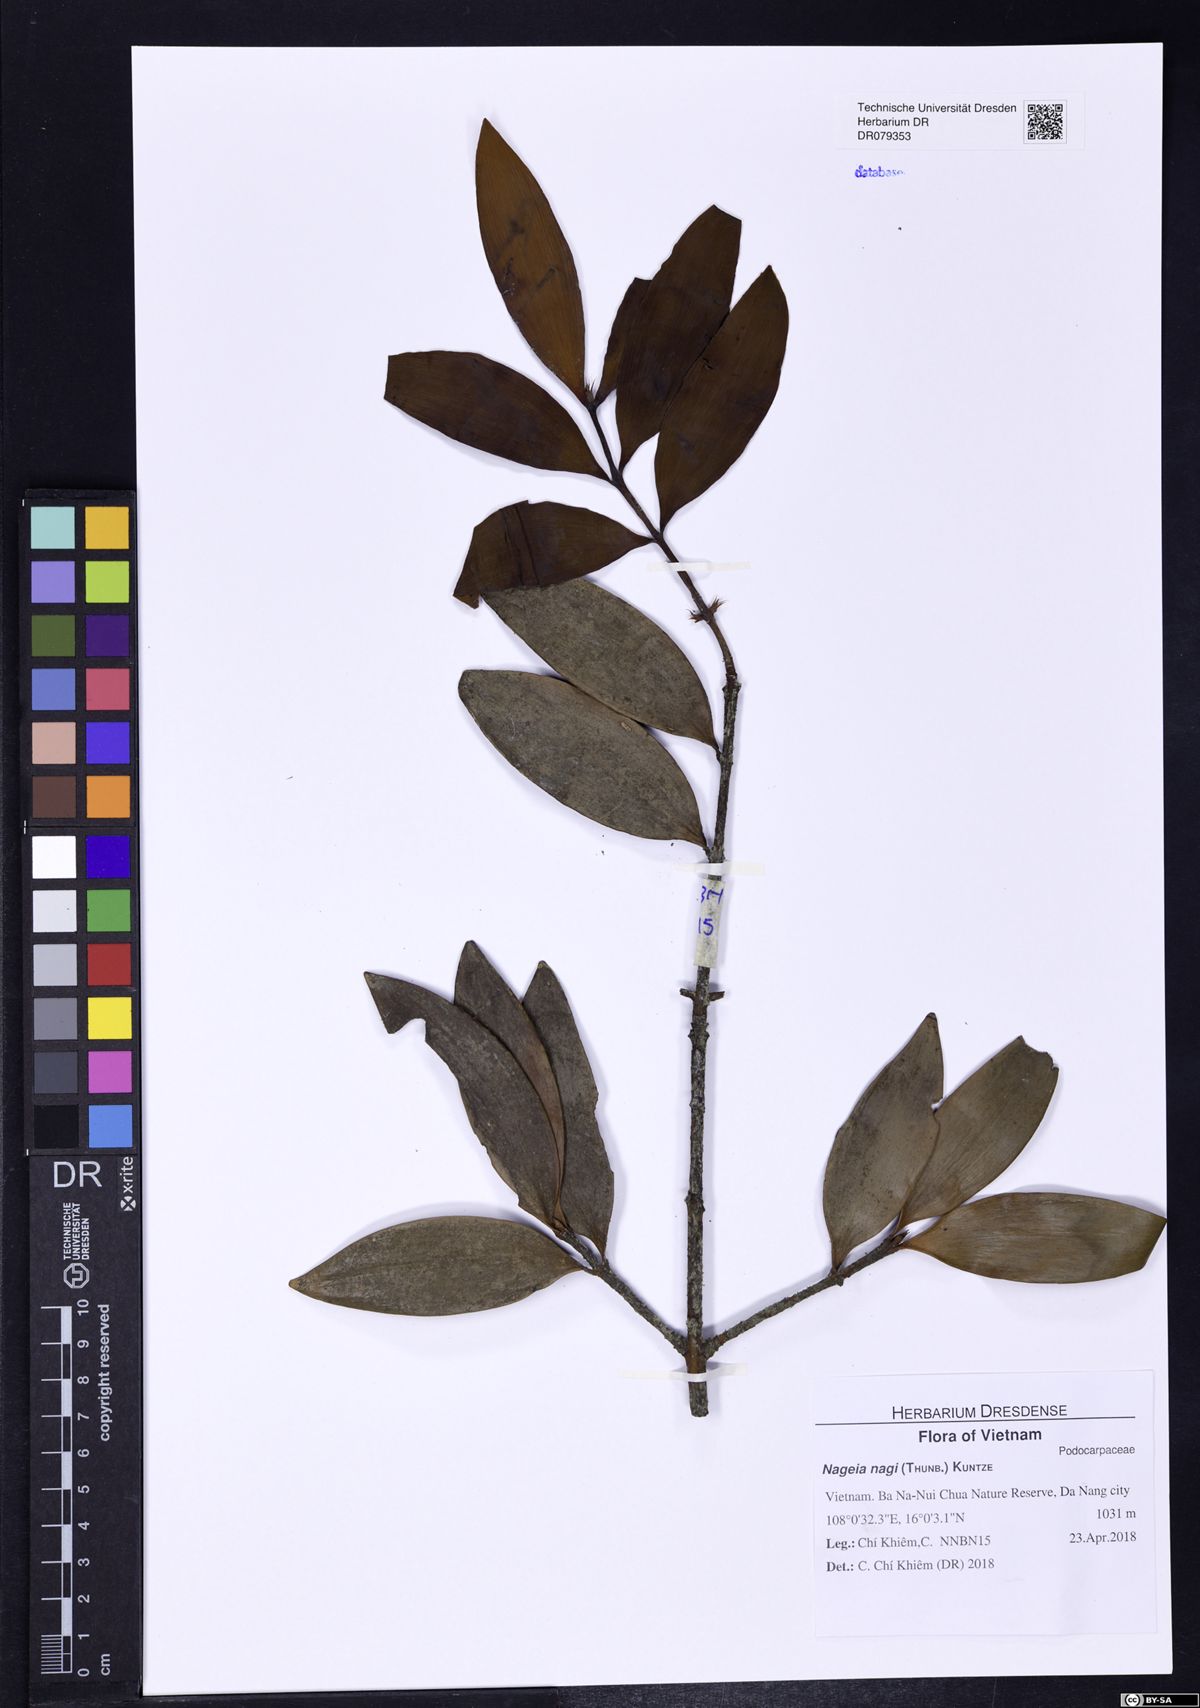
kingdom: Plantae
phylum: Tracheophyta
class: Pinopsida
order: Pinales
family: Podocarpaceae
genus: Nageia
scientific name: Nageia nagi
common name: Kaphal
